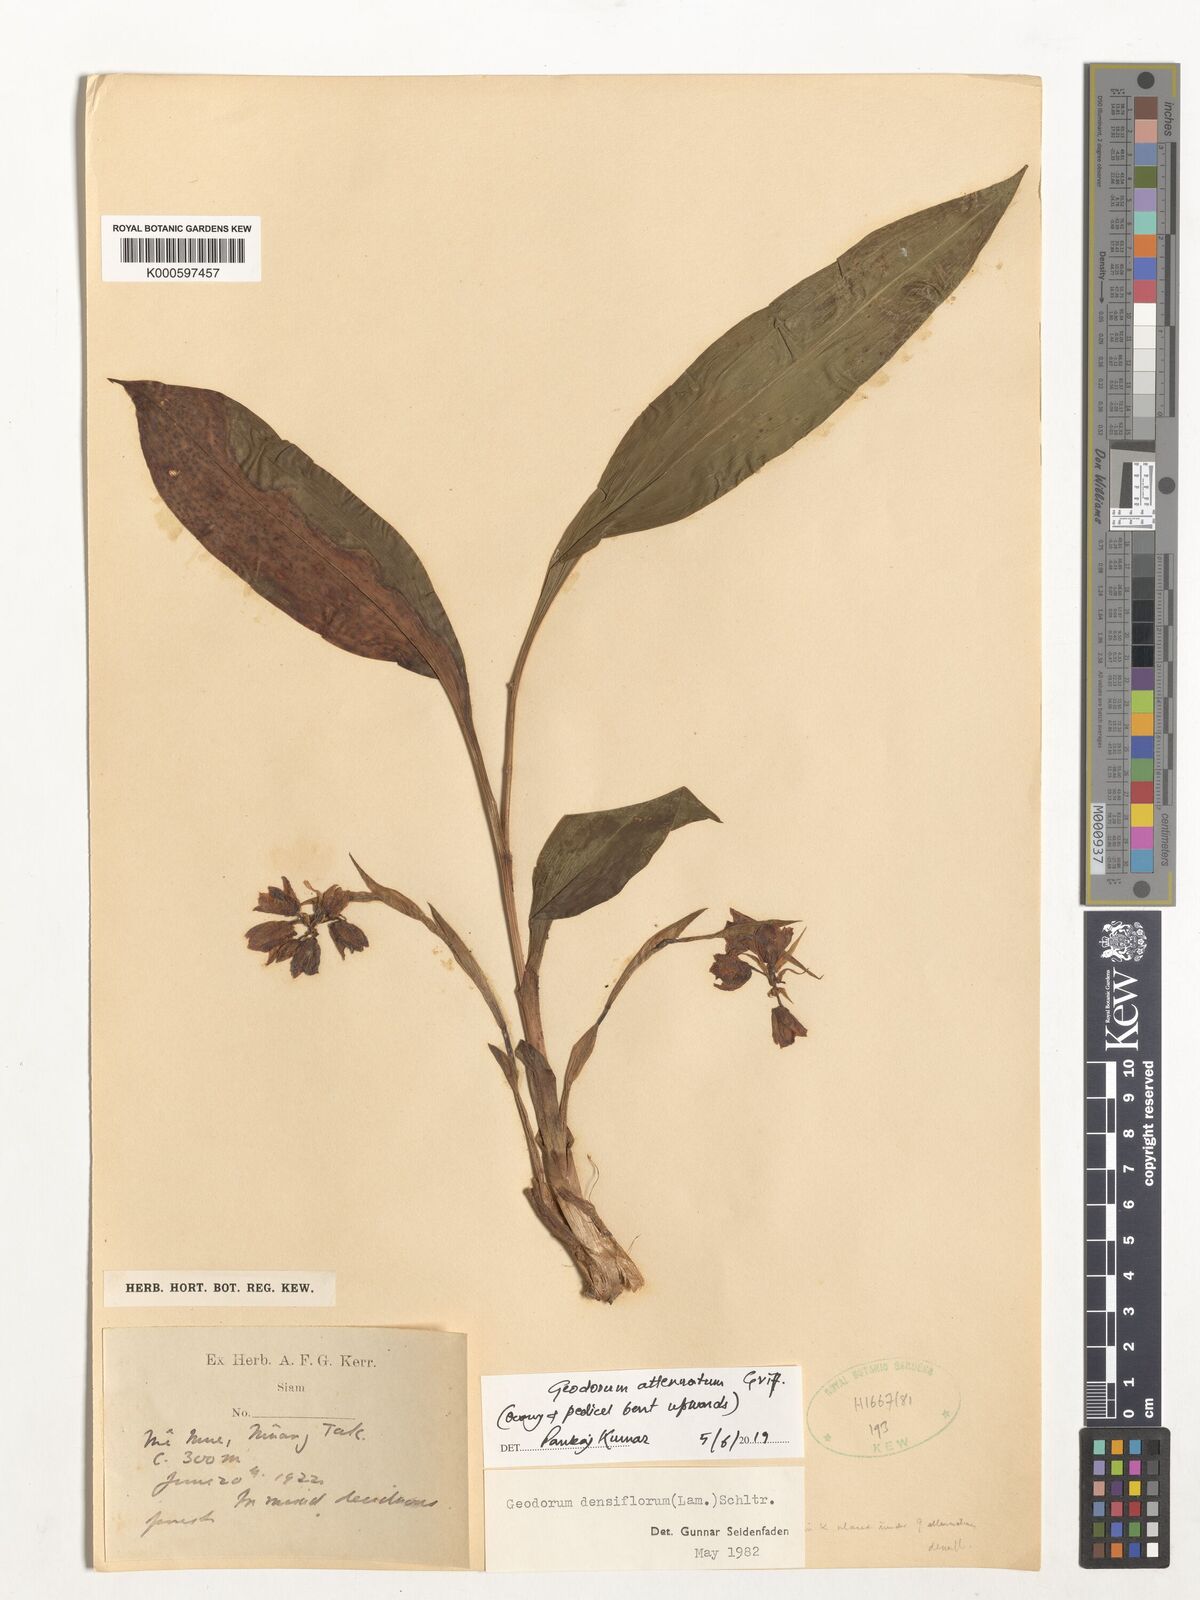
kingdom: Plantae
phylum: Tracheophyta
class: Liliopsida
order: Asparagales
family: Orchidaceae
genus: Eulophia
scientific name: Eulophia cernua
